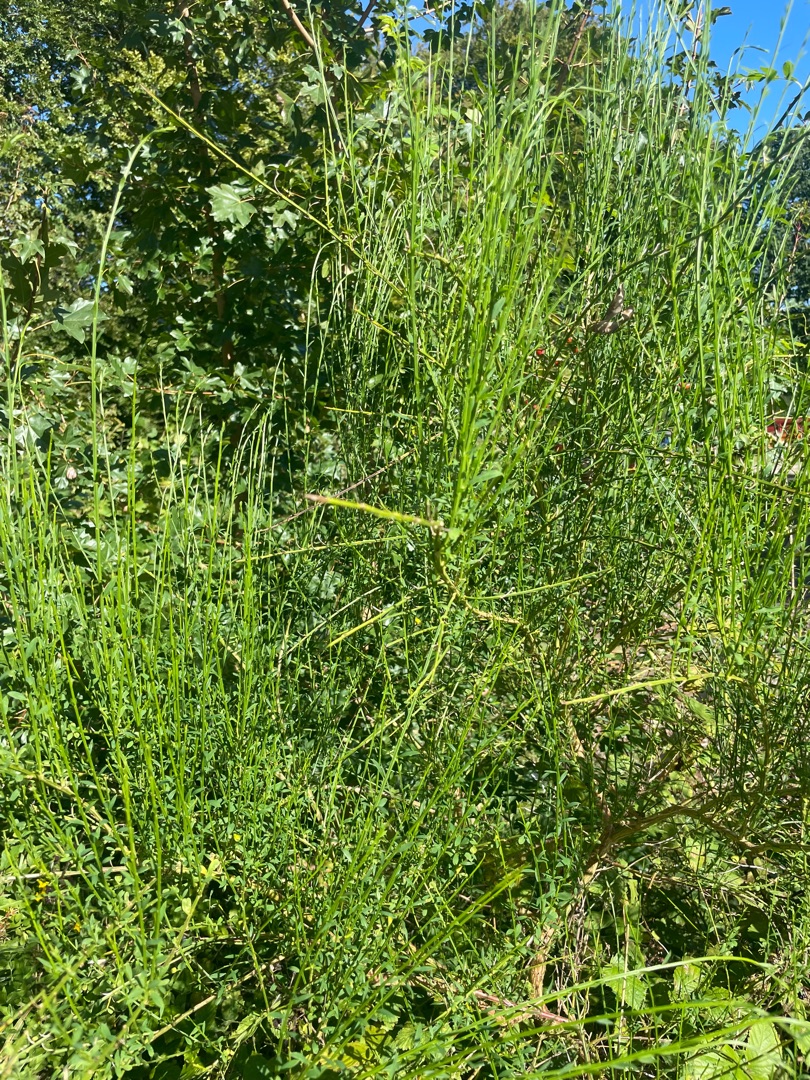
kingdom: Plantae
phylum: Tracheophyta
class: Magnoliopsida
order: Fabales
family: Fabaceae
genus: Cytisus
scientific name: Cytisus scoparius
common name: Almindelig gyvel
